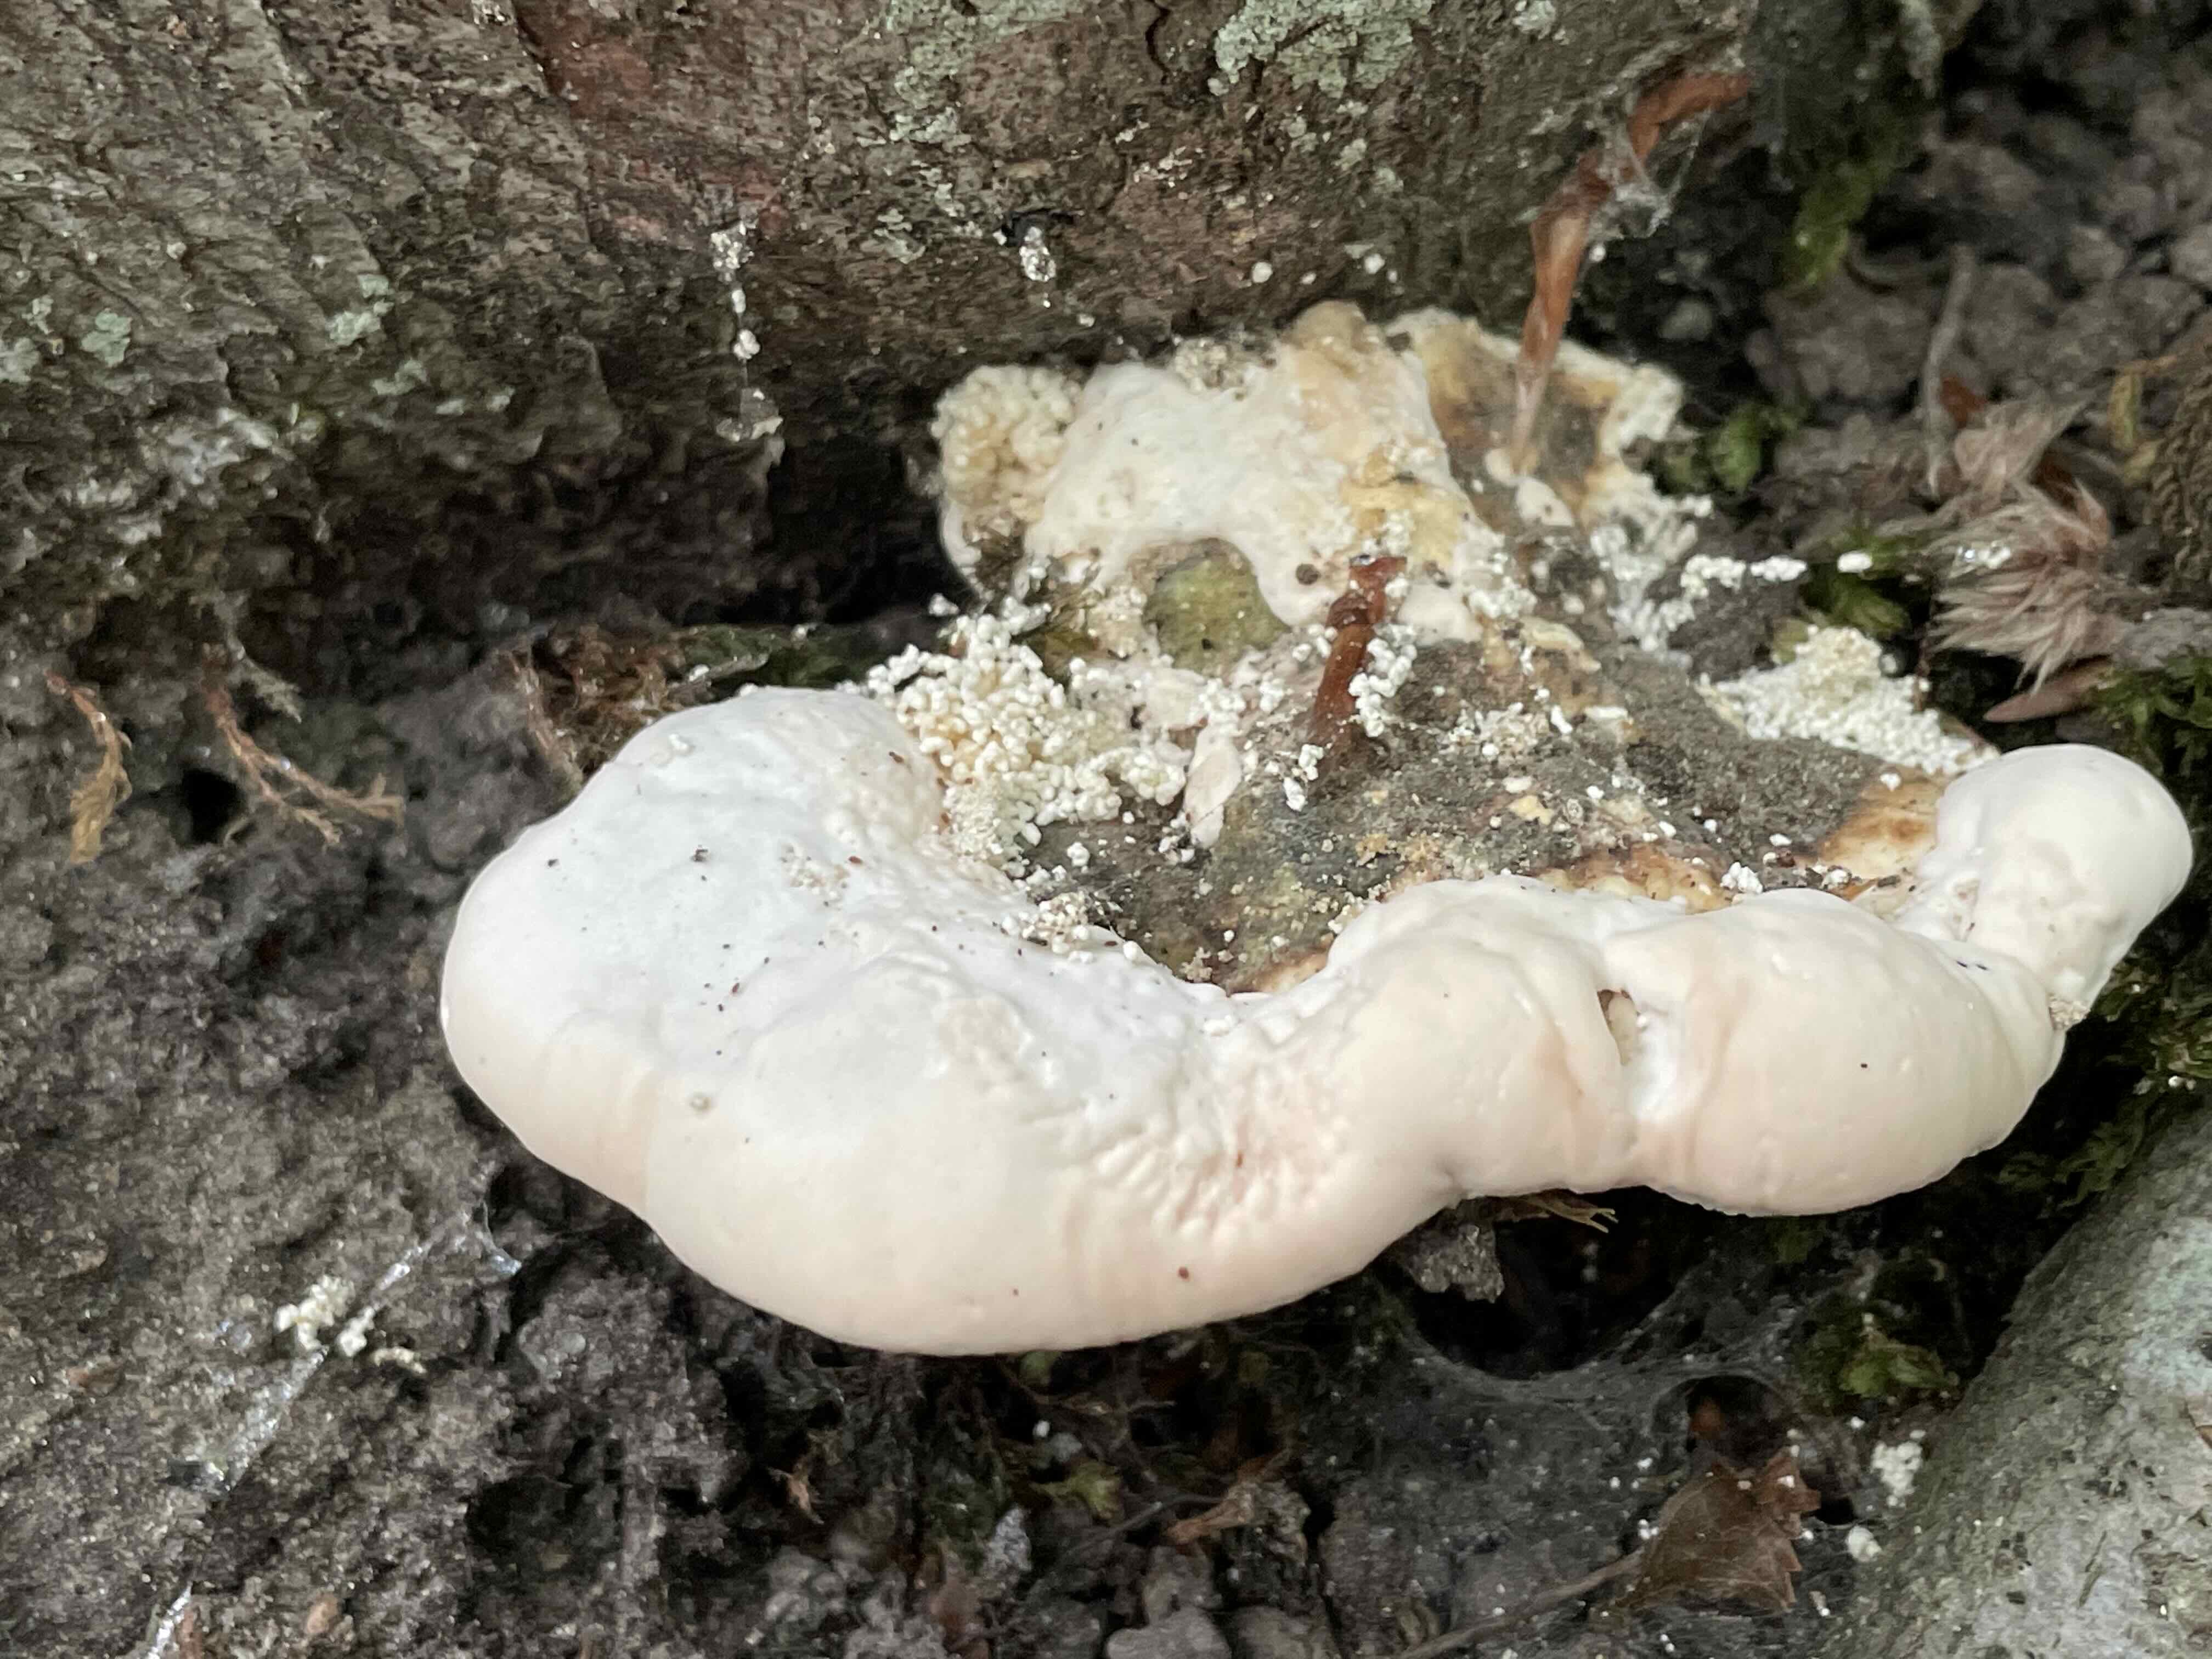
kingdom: Fungi
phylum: Basidiomycota
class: Agaricomycetes
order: Polyporales
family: Polyporaceae
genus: Trametes
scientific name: Trametes gibbosa
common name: puklet læderporesvamp
